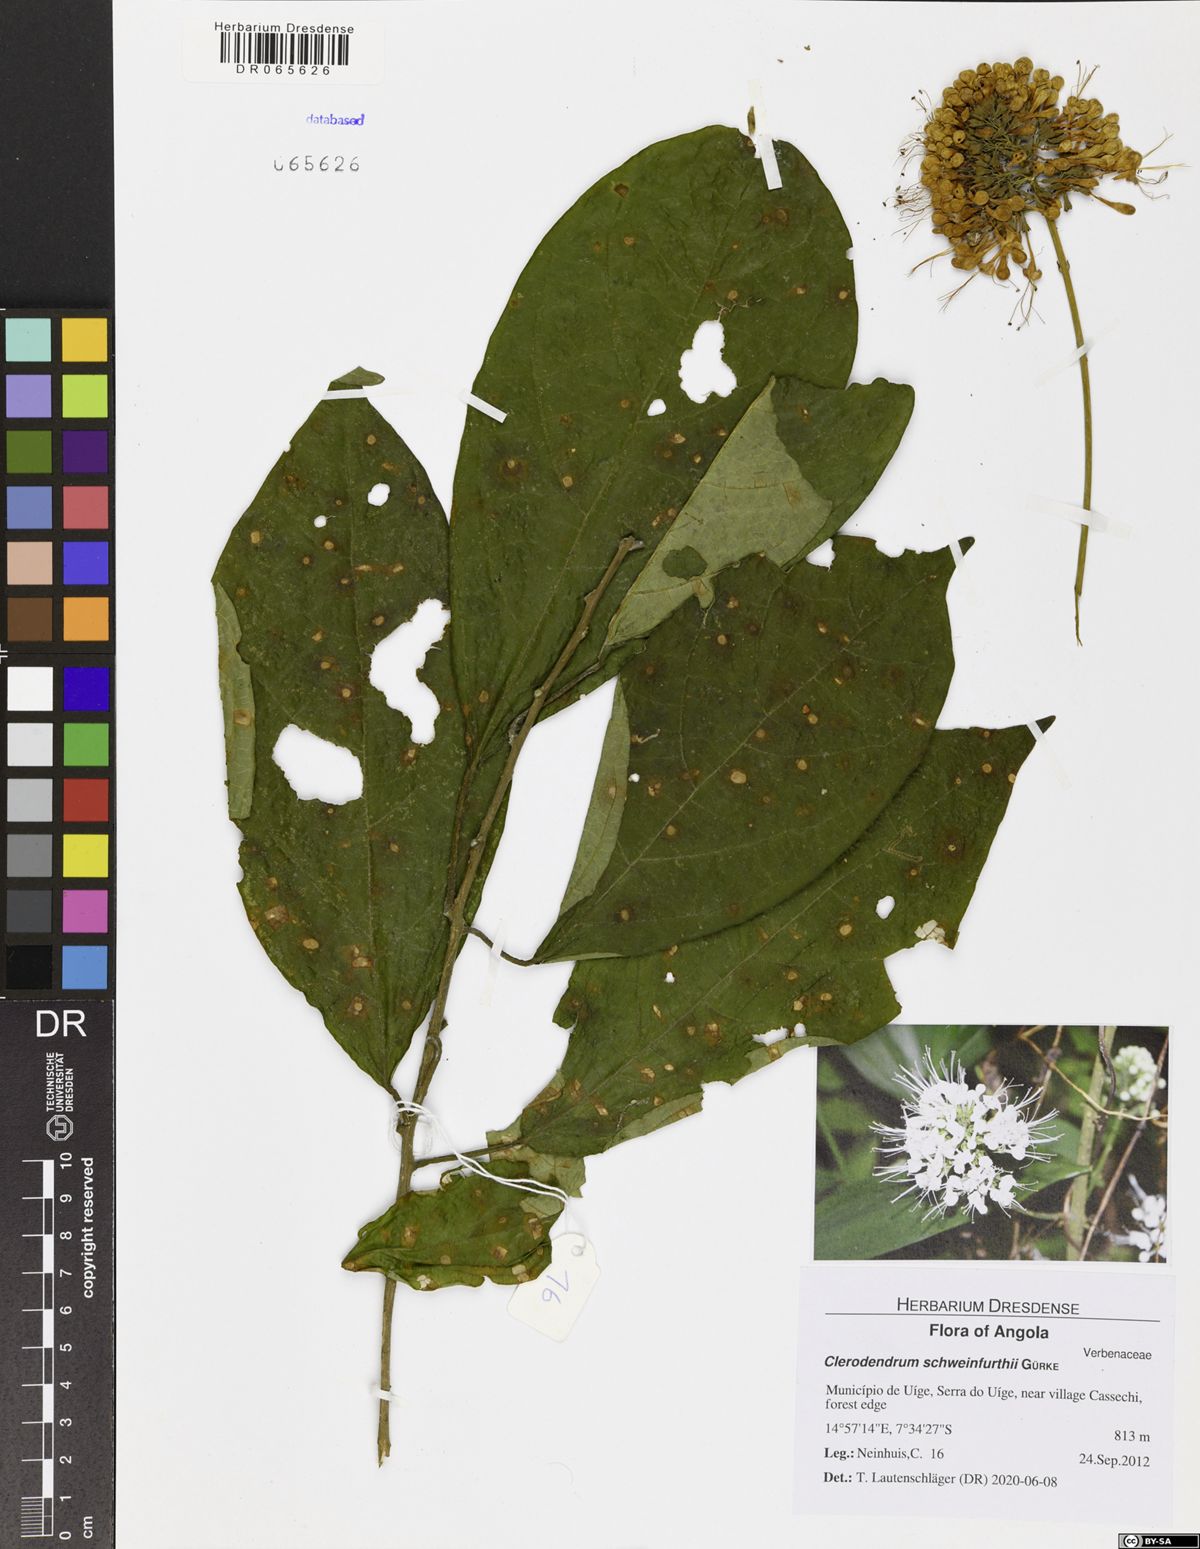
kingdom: Plantae
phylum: Tracheophyta
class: Magnoliopsida
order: Lamiales
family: Lamiaceae
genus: Clerodendrum
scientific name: Clerodendrum schweinfurthii
